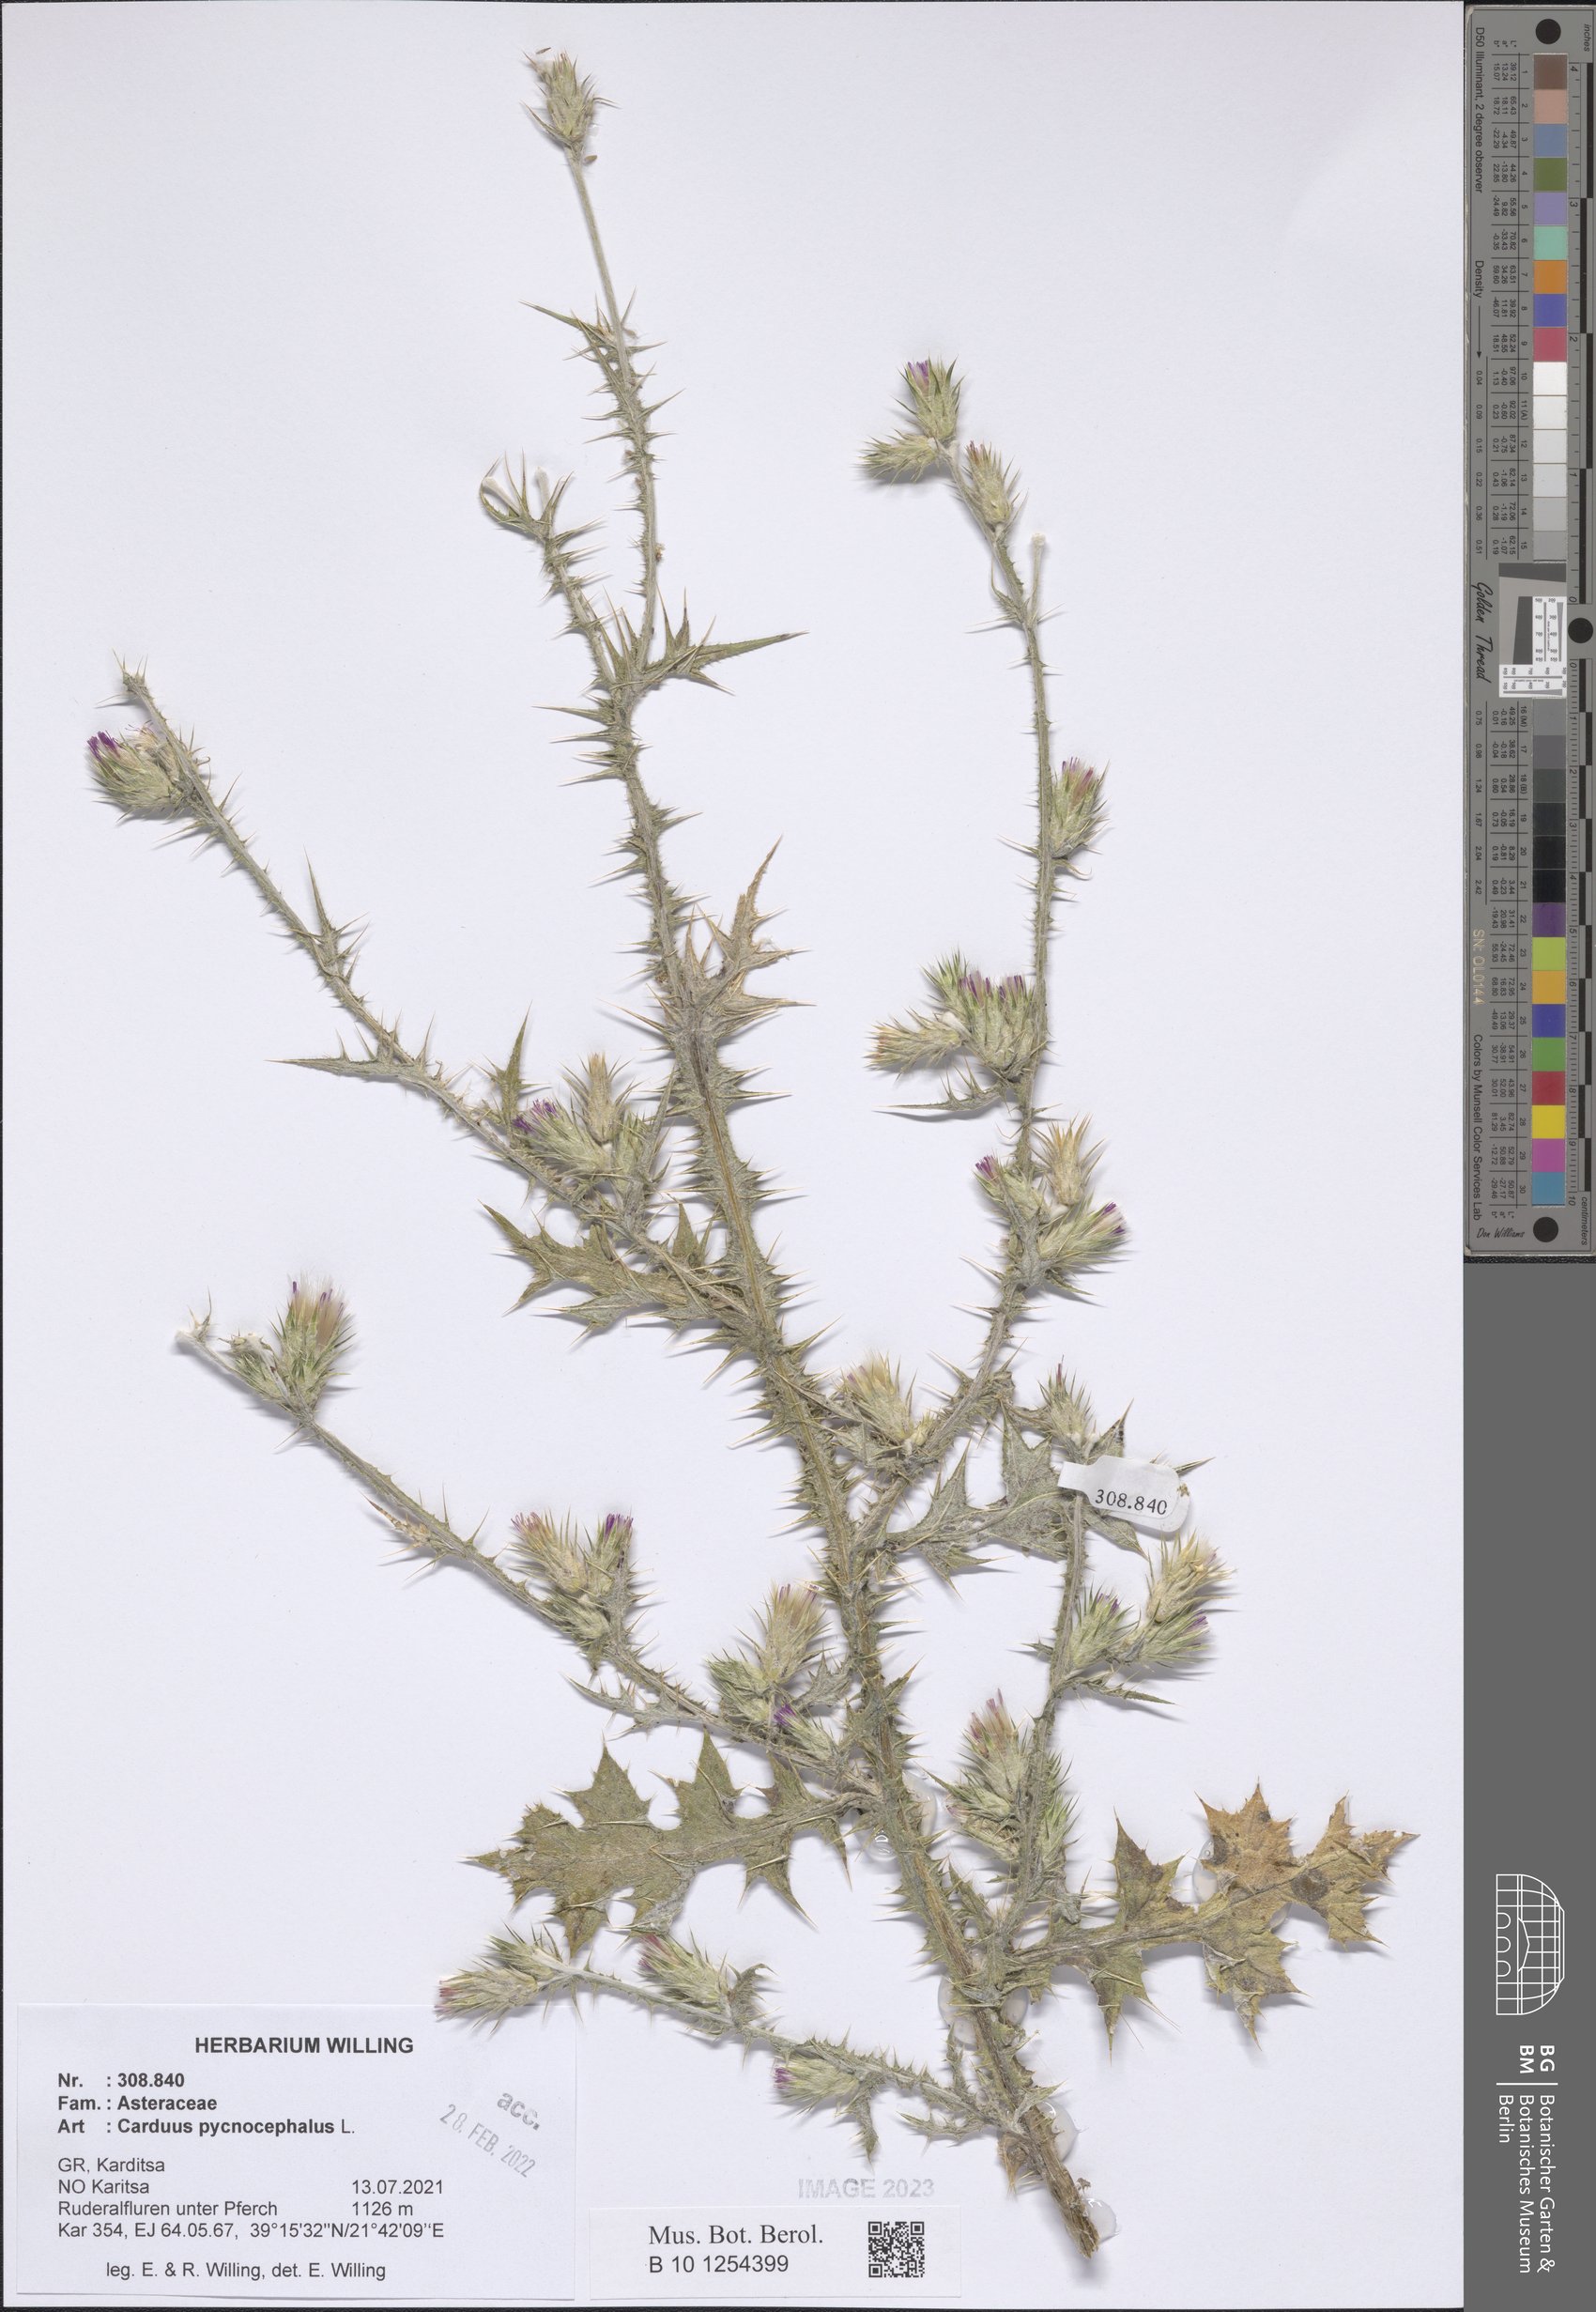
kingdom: Plantae
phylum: Tracheophyta
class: Magnoliopsida
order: Asterales
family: Asteraceae
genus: Carduus
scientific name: Carduus pycnocephalus
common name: Plymouth thistle
